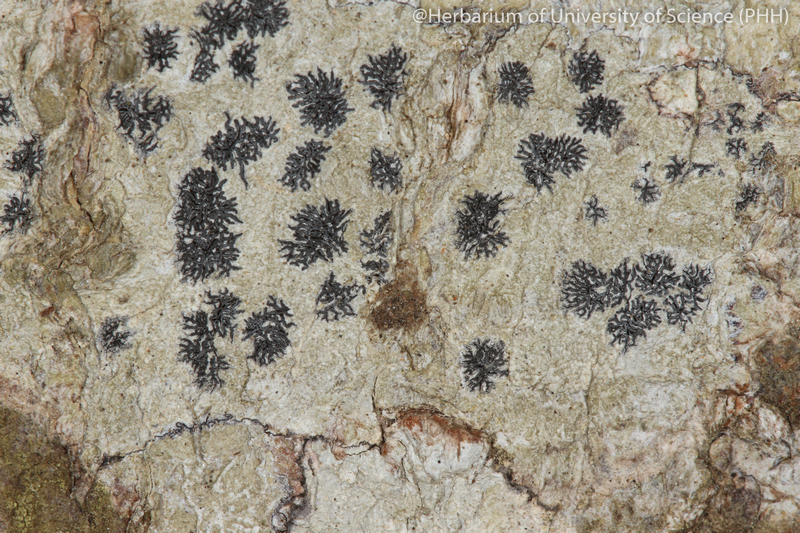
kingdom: Fungi
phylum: Ascomycota
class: Lecanoromycetes
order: Ostropales
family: Graphidaceae
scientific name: Graphidaceae
